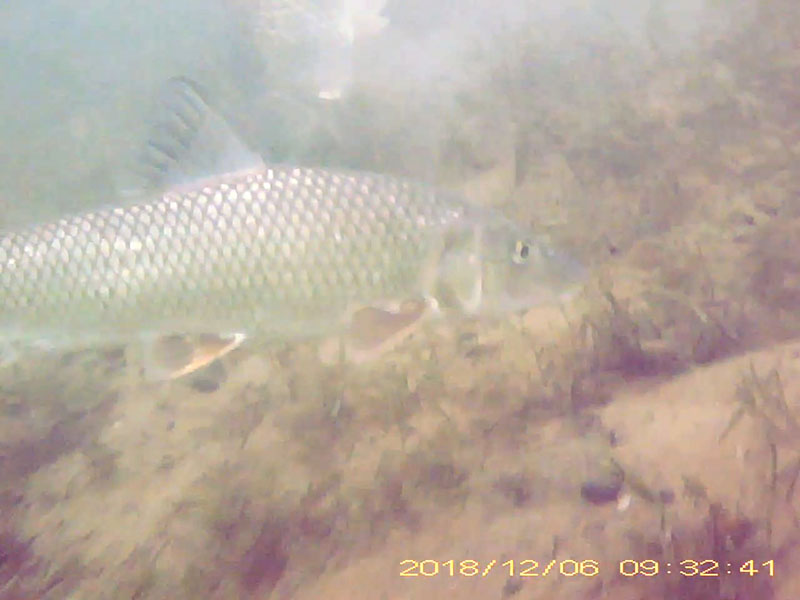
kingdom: Animalia
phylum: Chordata
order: Cypriniformes
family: Cyprinidae
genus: Hemibarbus
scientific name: Hemibarbus labeo
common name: ニゴイ
